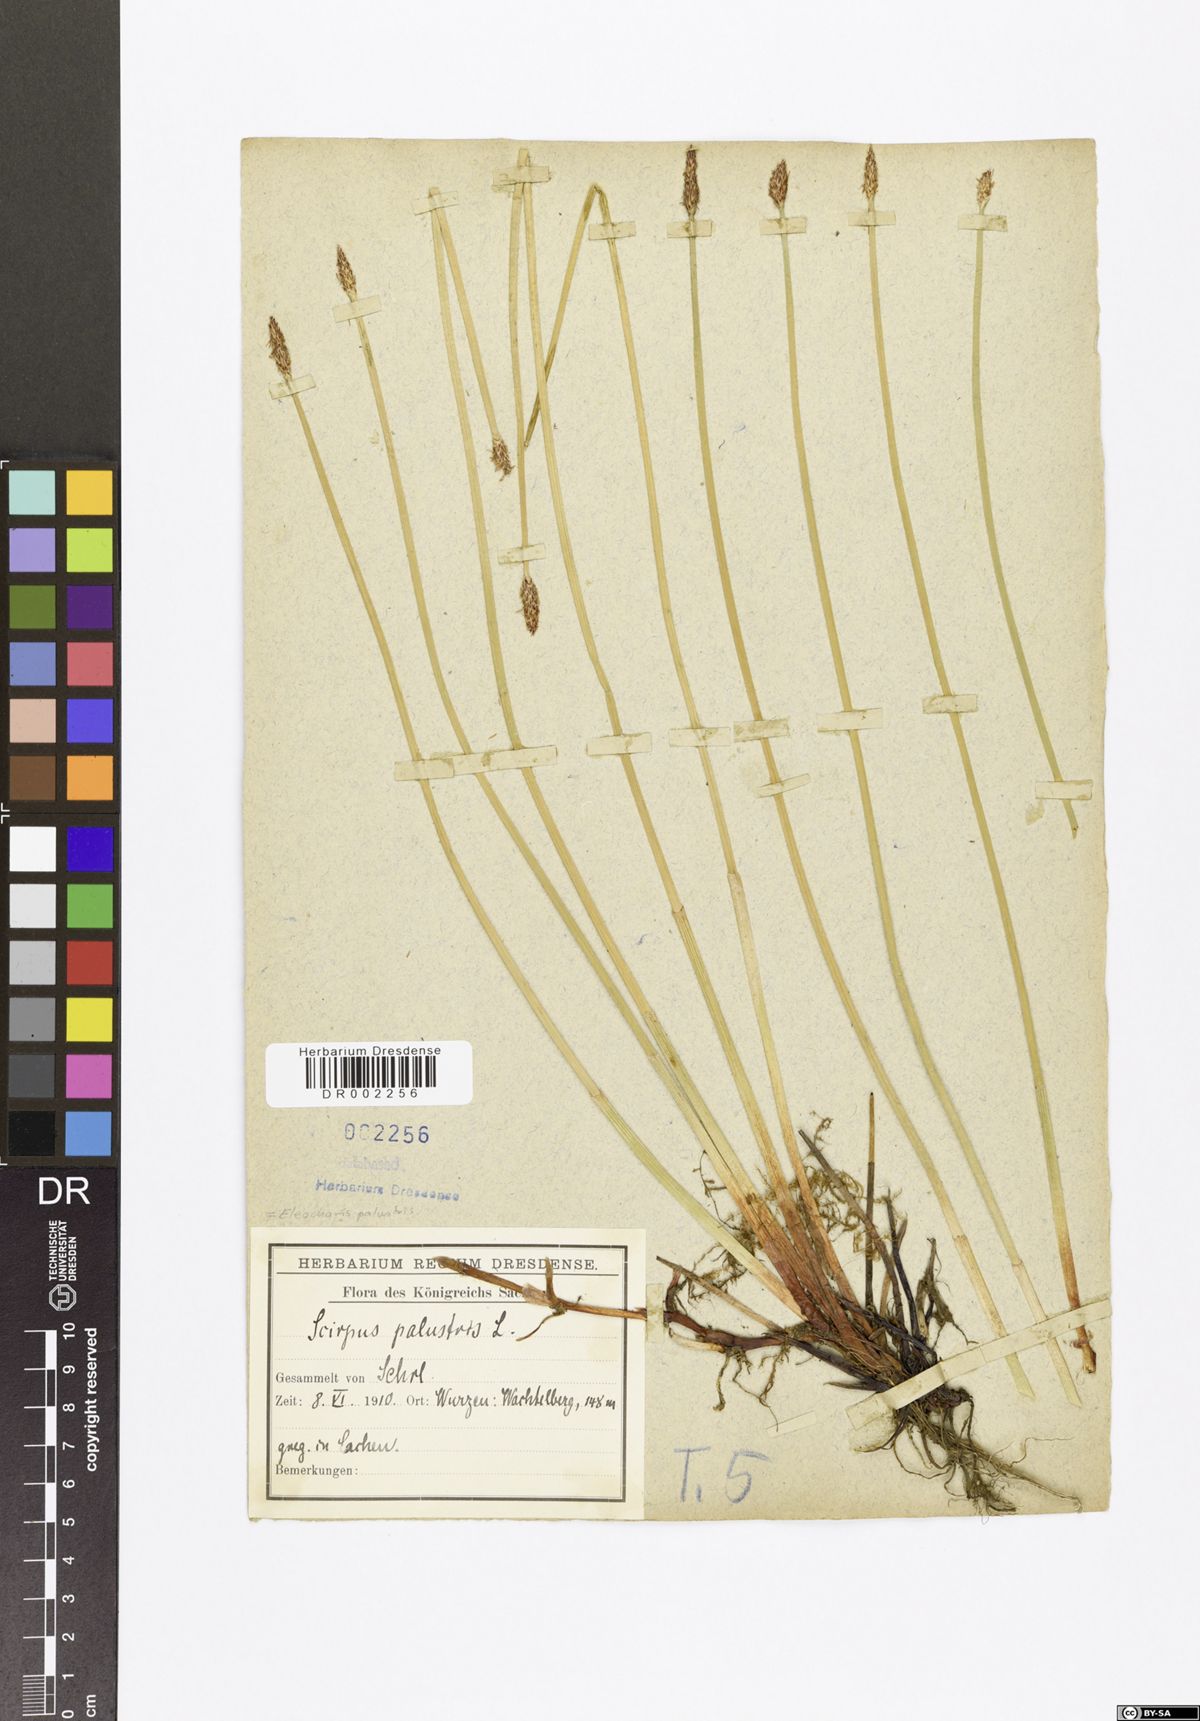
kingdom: Plantae
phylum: Tracheophyta
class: Liliopsida
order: Poales
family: Cyperaceae
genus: Eleocharis
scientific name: Eleocharis palustris
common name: Common spike-rush
